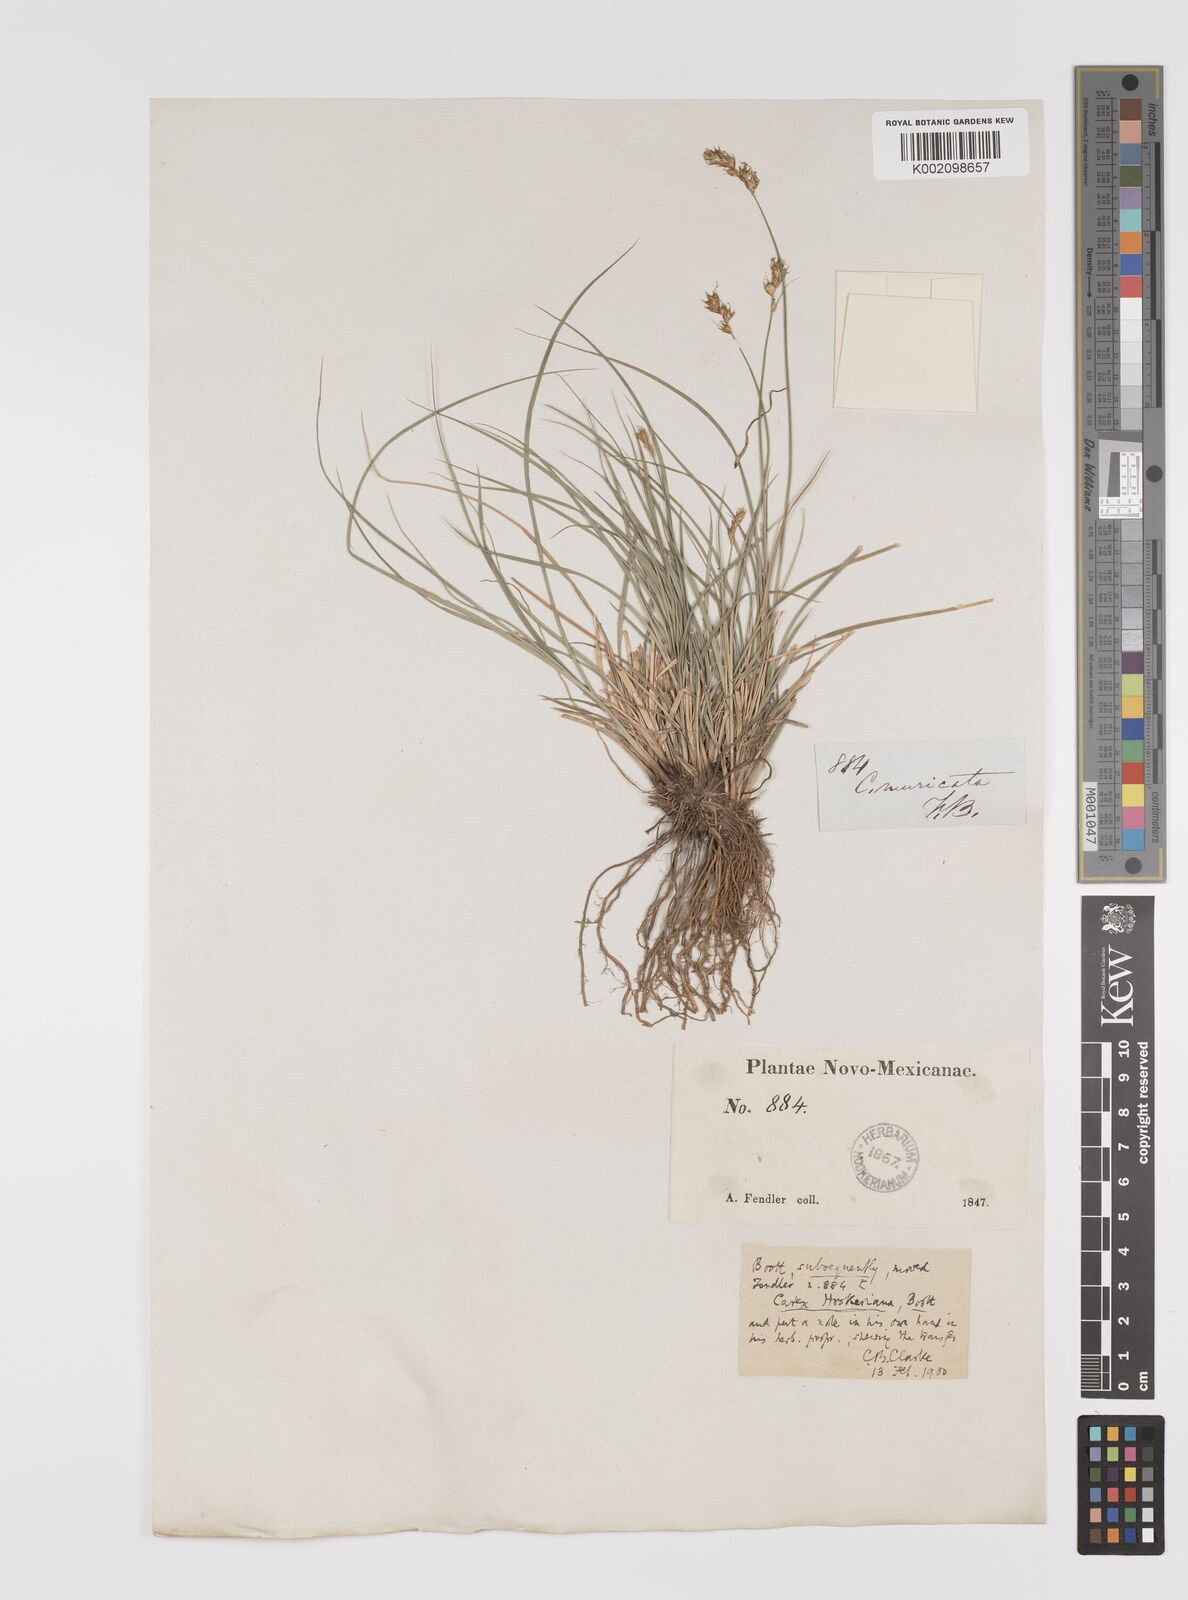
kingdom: Plantae
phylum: Tracheophyta
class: Liliopsida
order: Poales
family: Cyperaceae
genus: Carex
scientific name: Carex hookeriana
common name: Hooker's sedge
